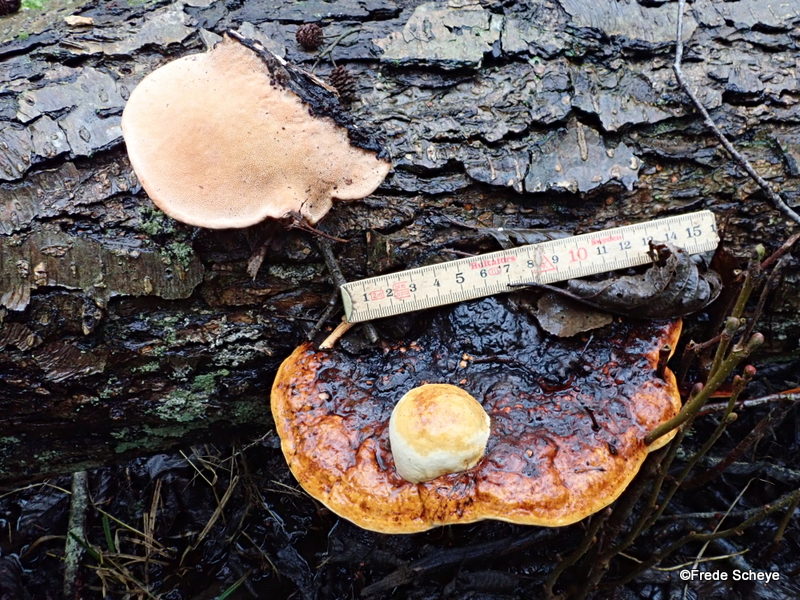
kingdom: Fungi
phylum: Basidiomycota
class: Agaricomycetes
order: Polyporales
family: Fomitopsidaceae
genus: Fomitopsis
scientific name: Fomitopsis pinicola
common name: randbæltet hovporesvamp
